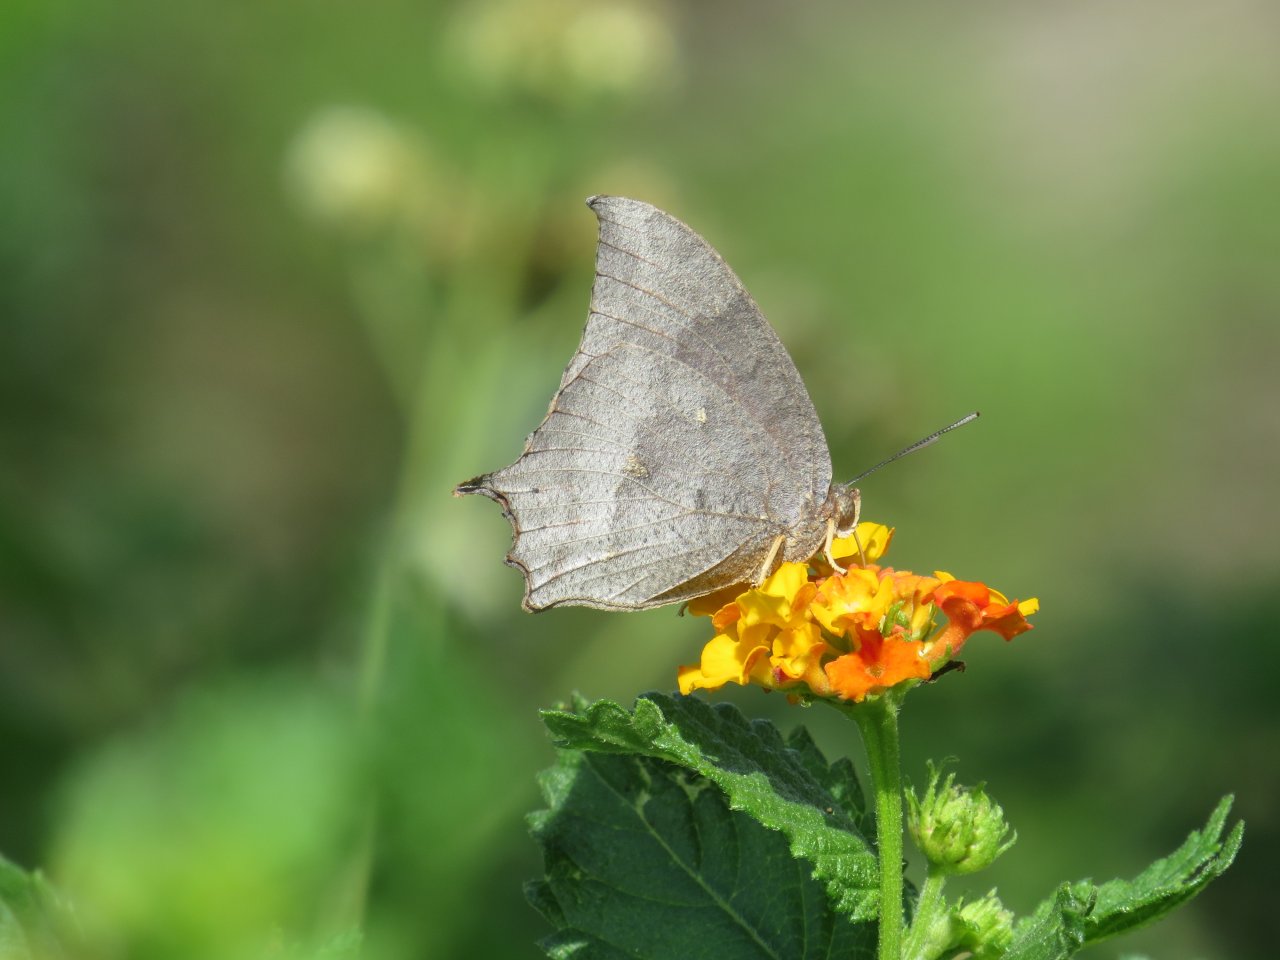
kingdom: Animalia
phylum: Arthropoda
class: Insecta
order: Lepidoptera
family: Nymphalidae
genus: Anaea
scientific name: Anaea aidea
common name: Tropical Leafwing
